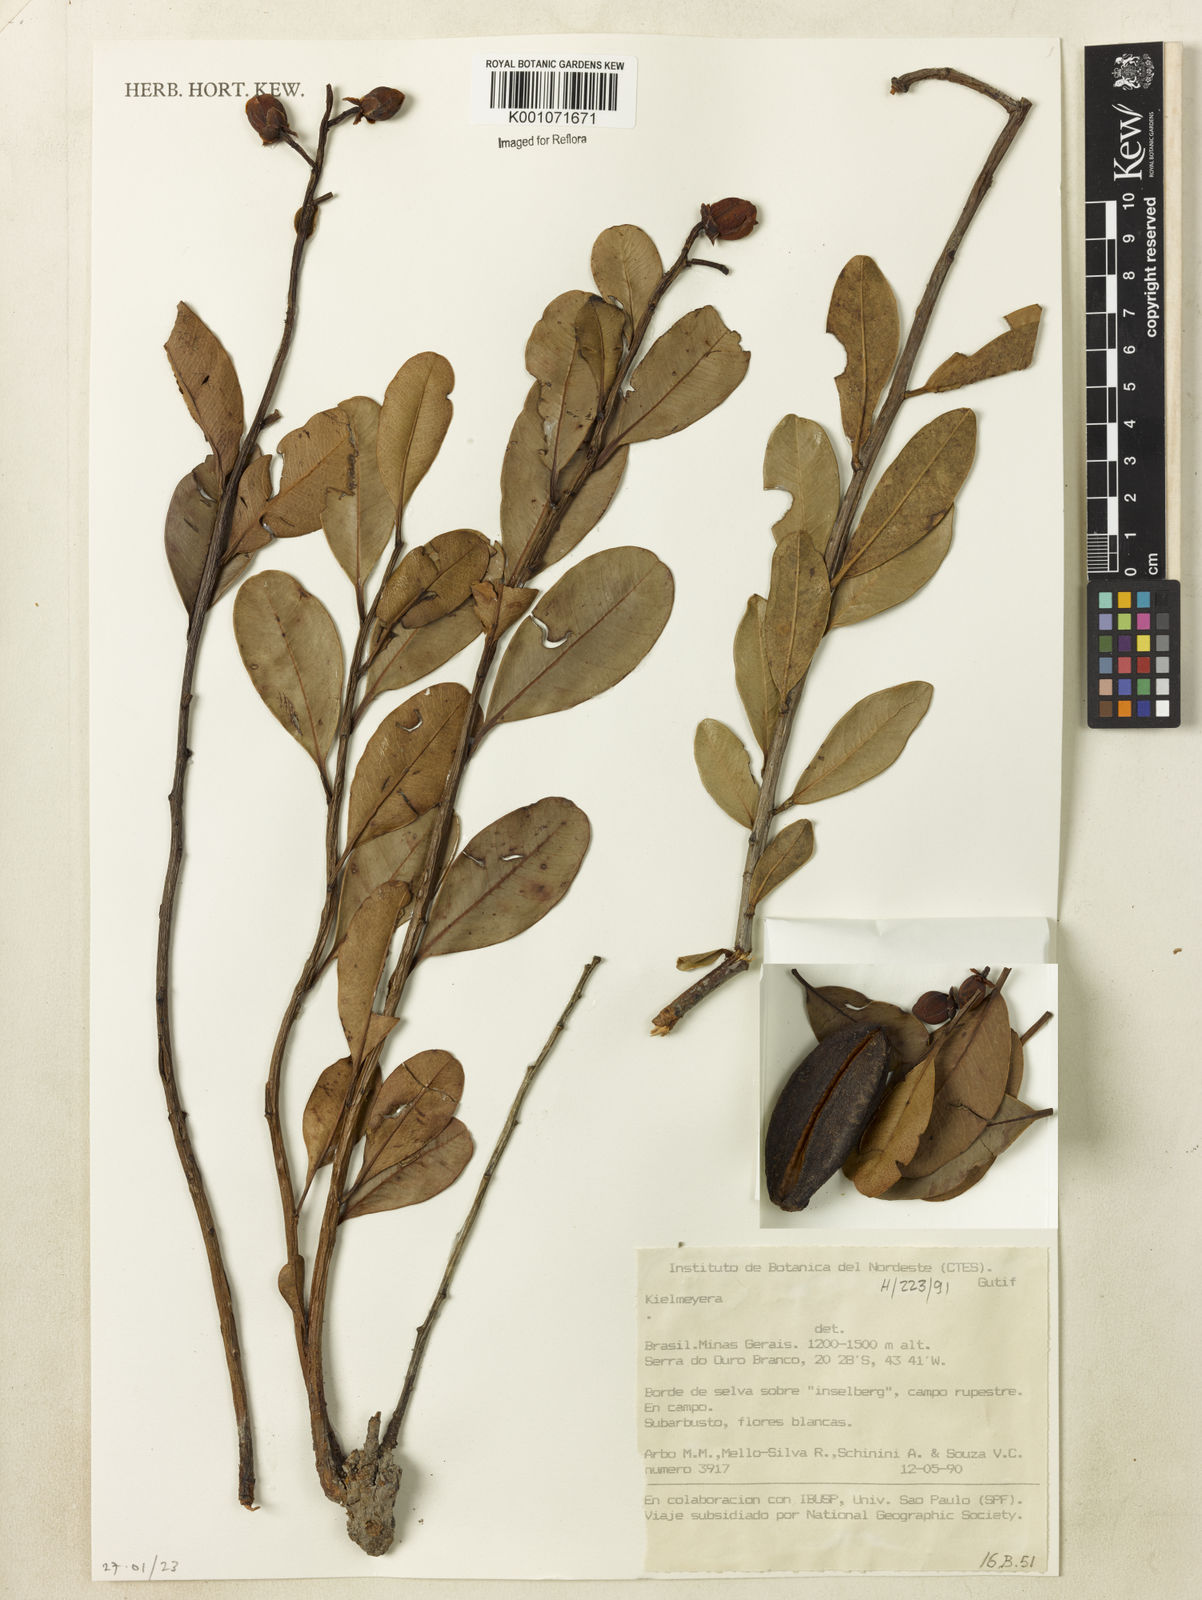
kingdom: Plantae
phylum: Tracheophyta
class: Magnoliopsida
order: Malpighiales
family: Calophyllaceae
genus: Kielmeyera
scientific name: Kielmeyera variabilis
